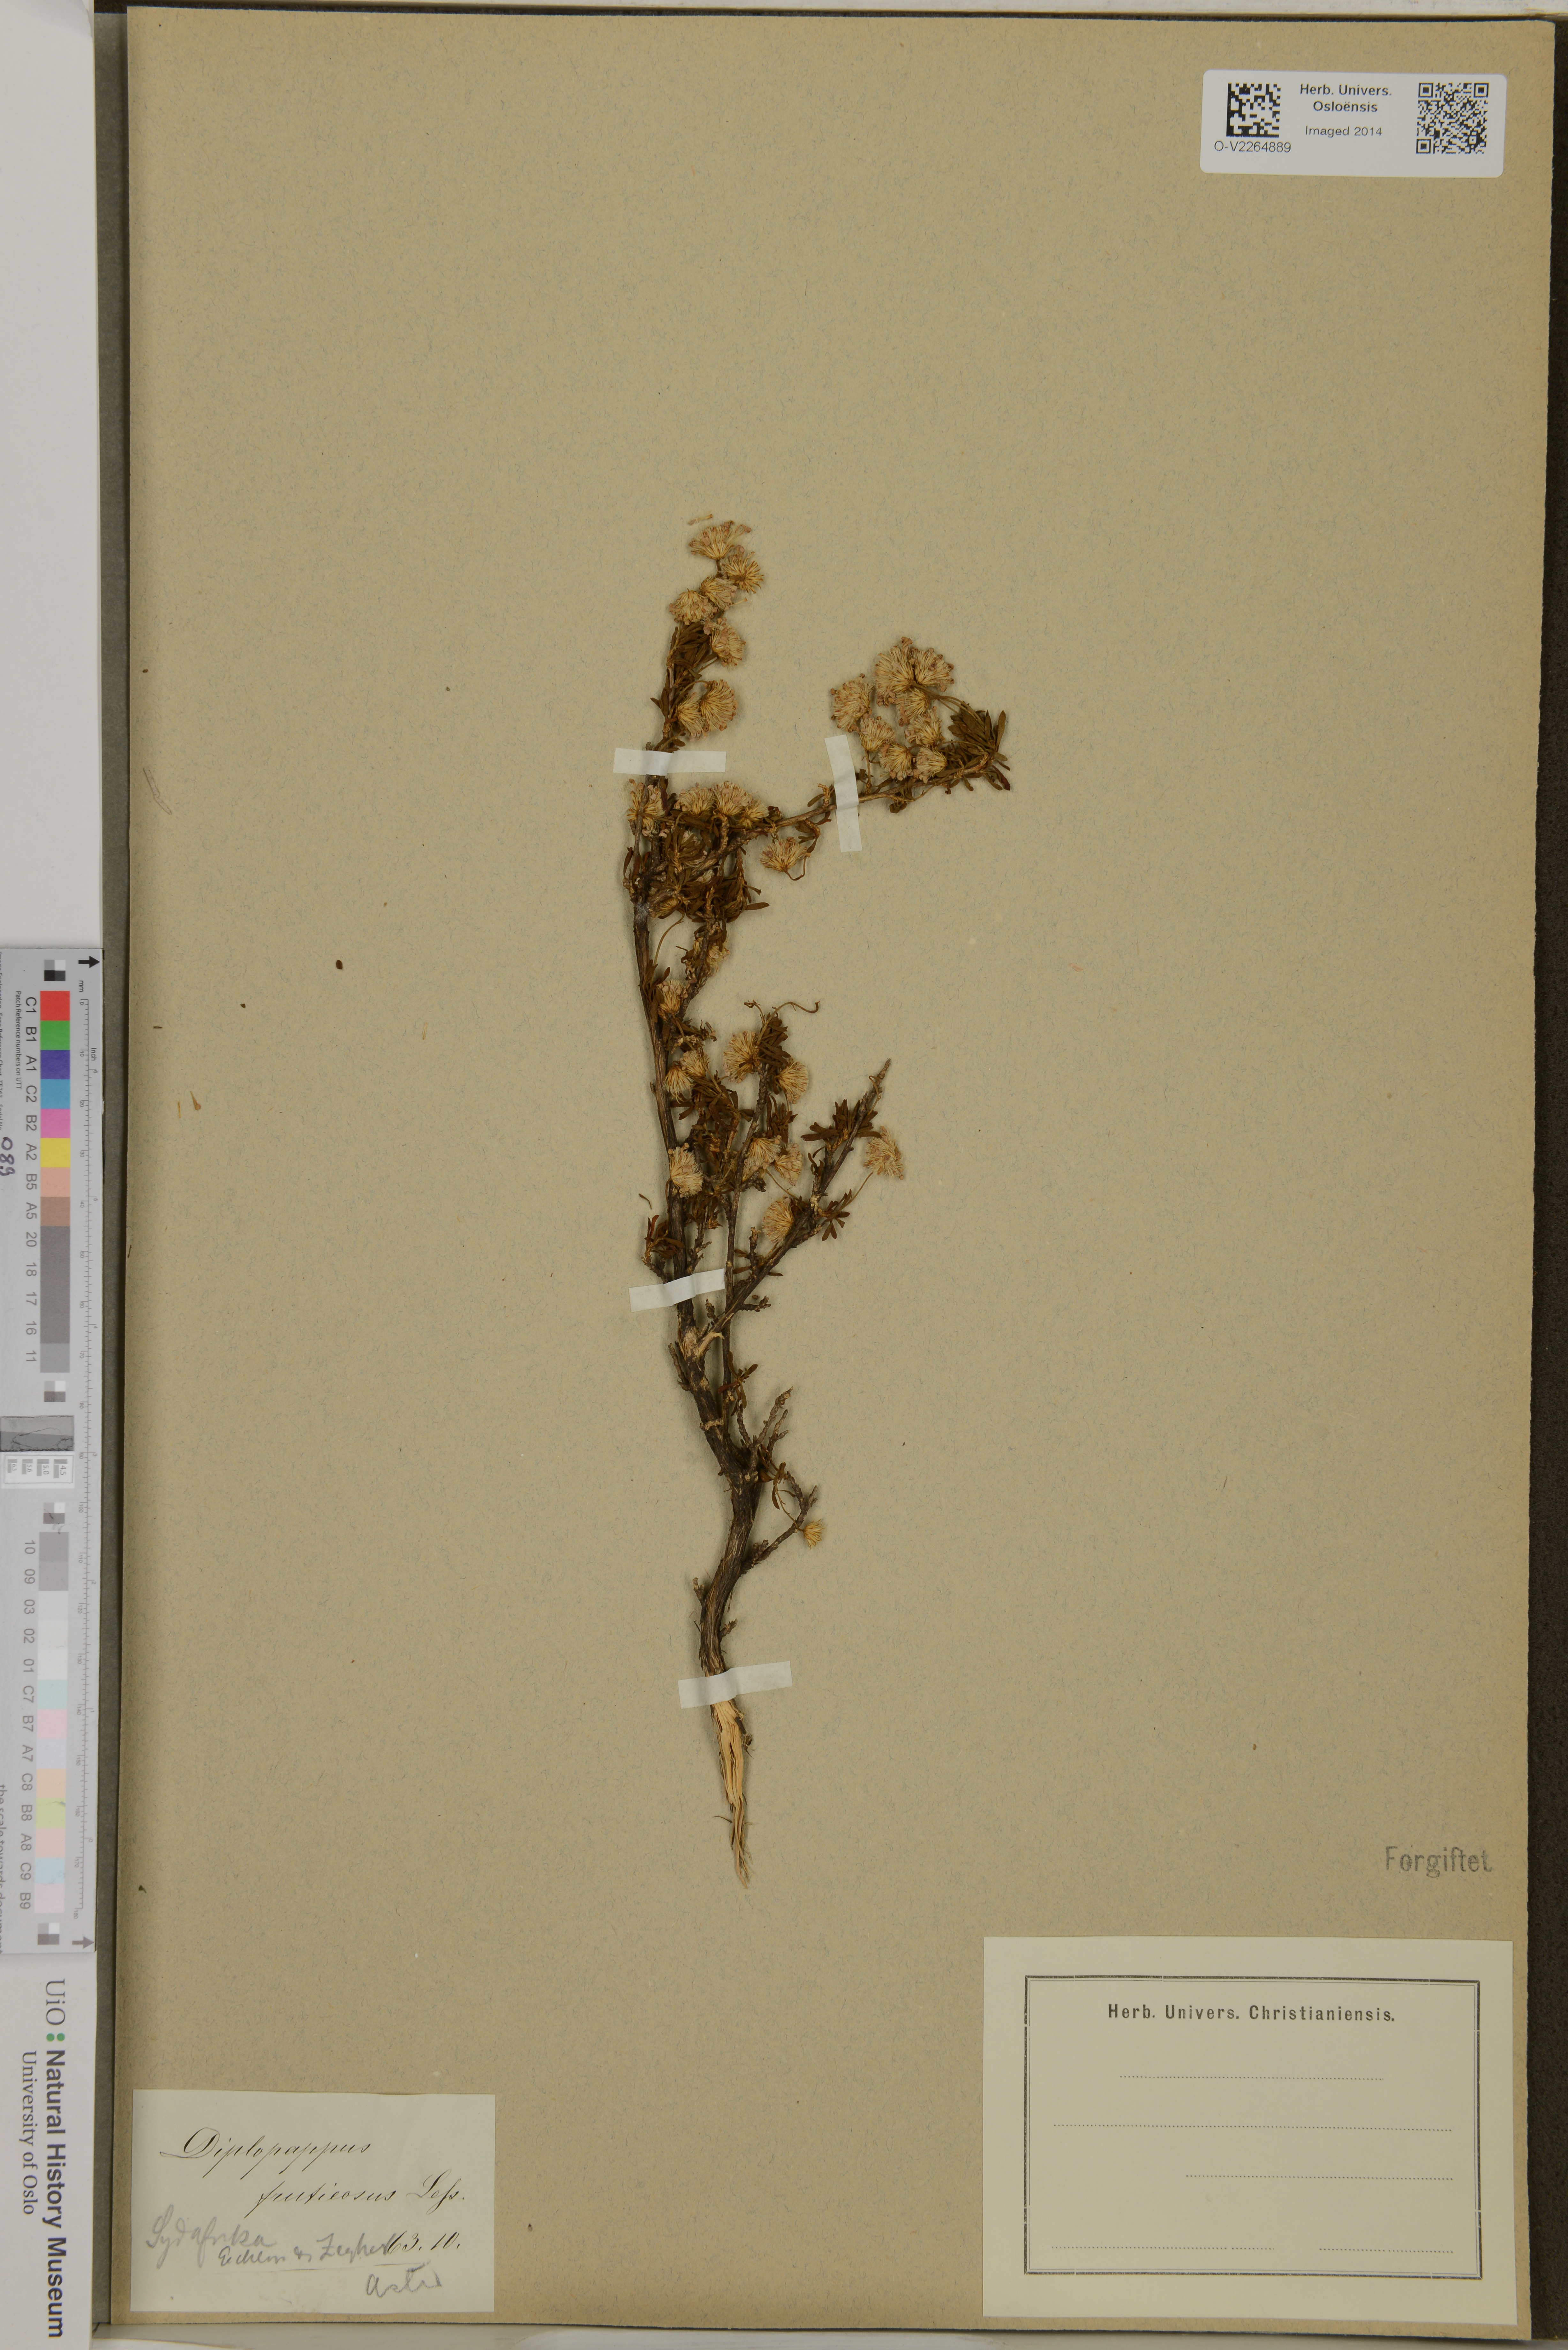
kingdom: Plantae
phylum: Tracheophyta
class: Magnoliopsida
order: Asterales
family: Asteraceae
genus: Felicia
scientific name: Felicia fruticosa
